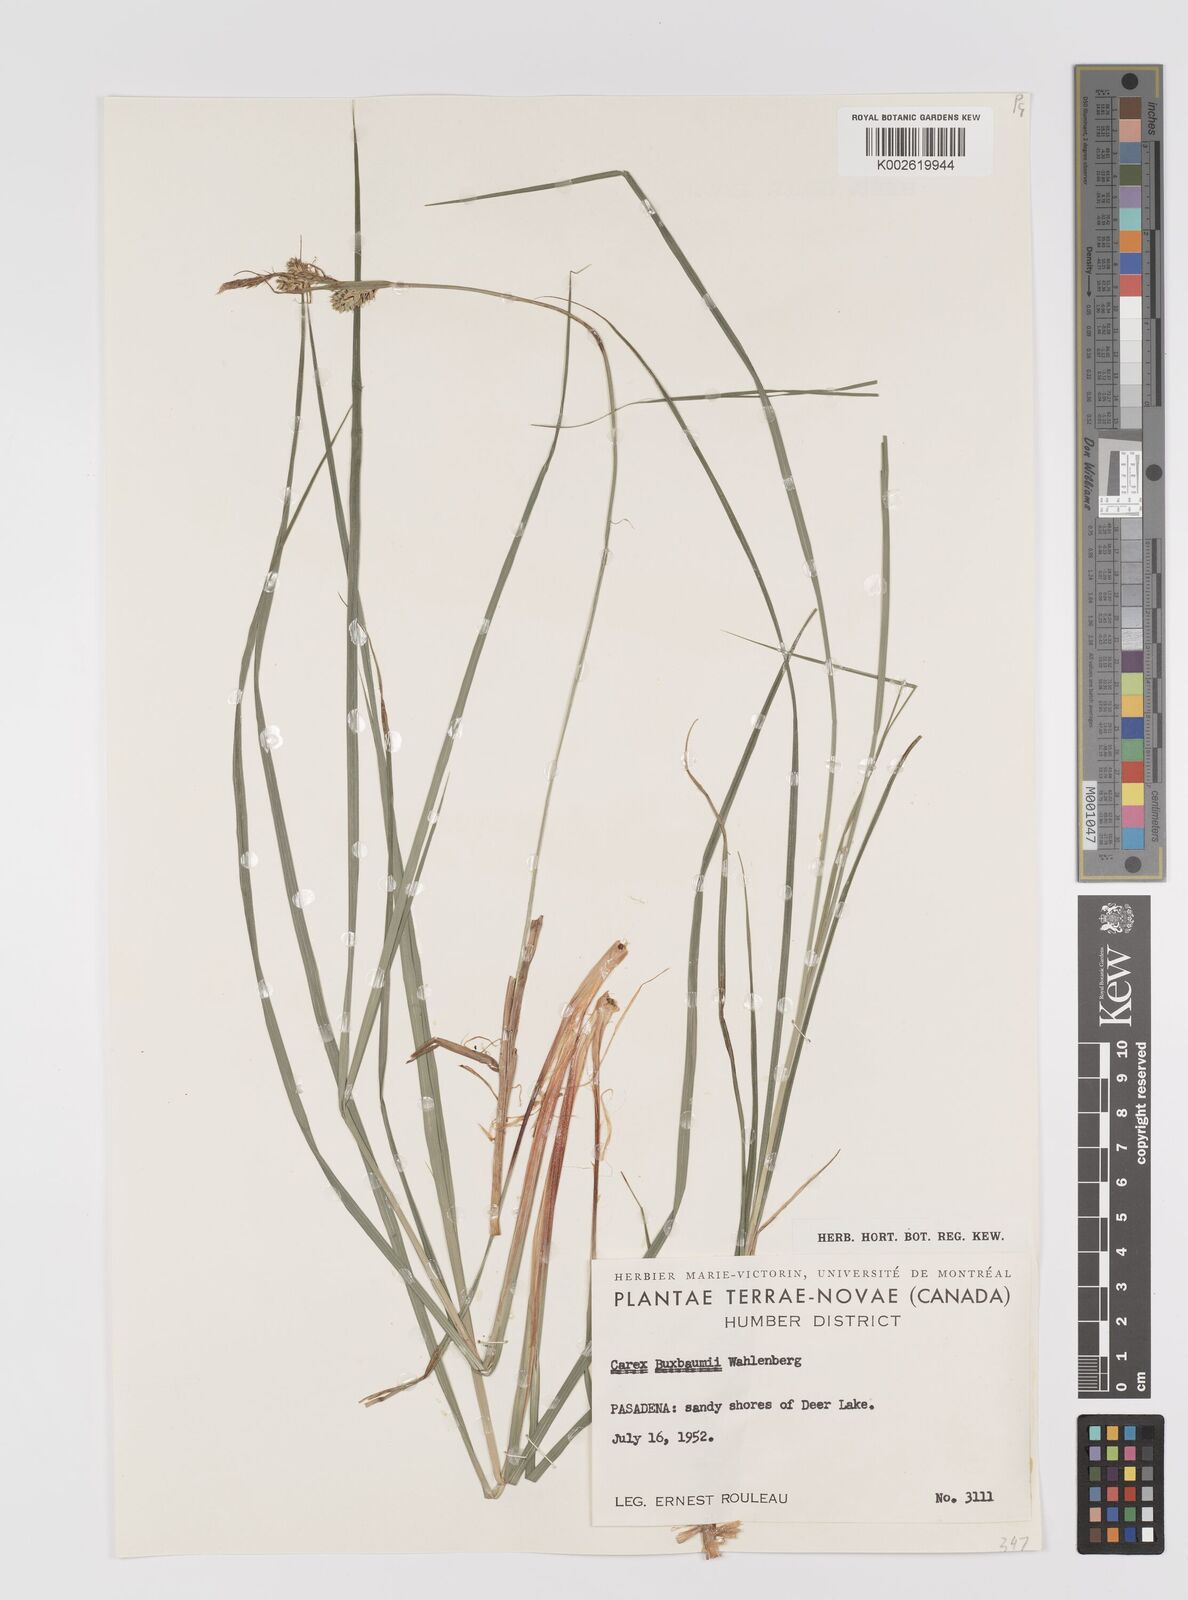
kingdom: Plantae
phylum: Tracheophyta
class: Liliopsida
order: Poales
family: Cyperaceae
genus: Carex
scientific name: Carex capillaris
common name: Hair sedge
